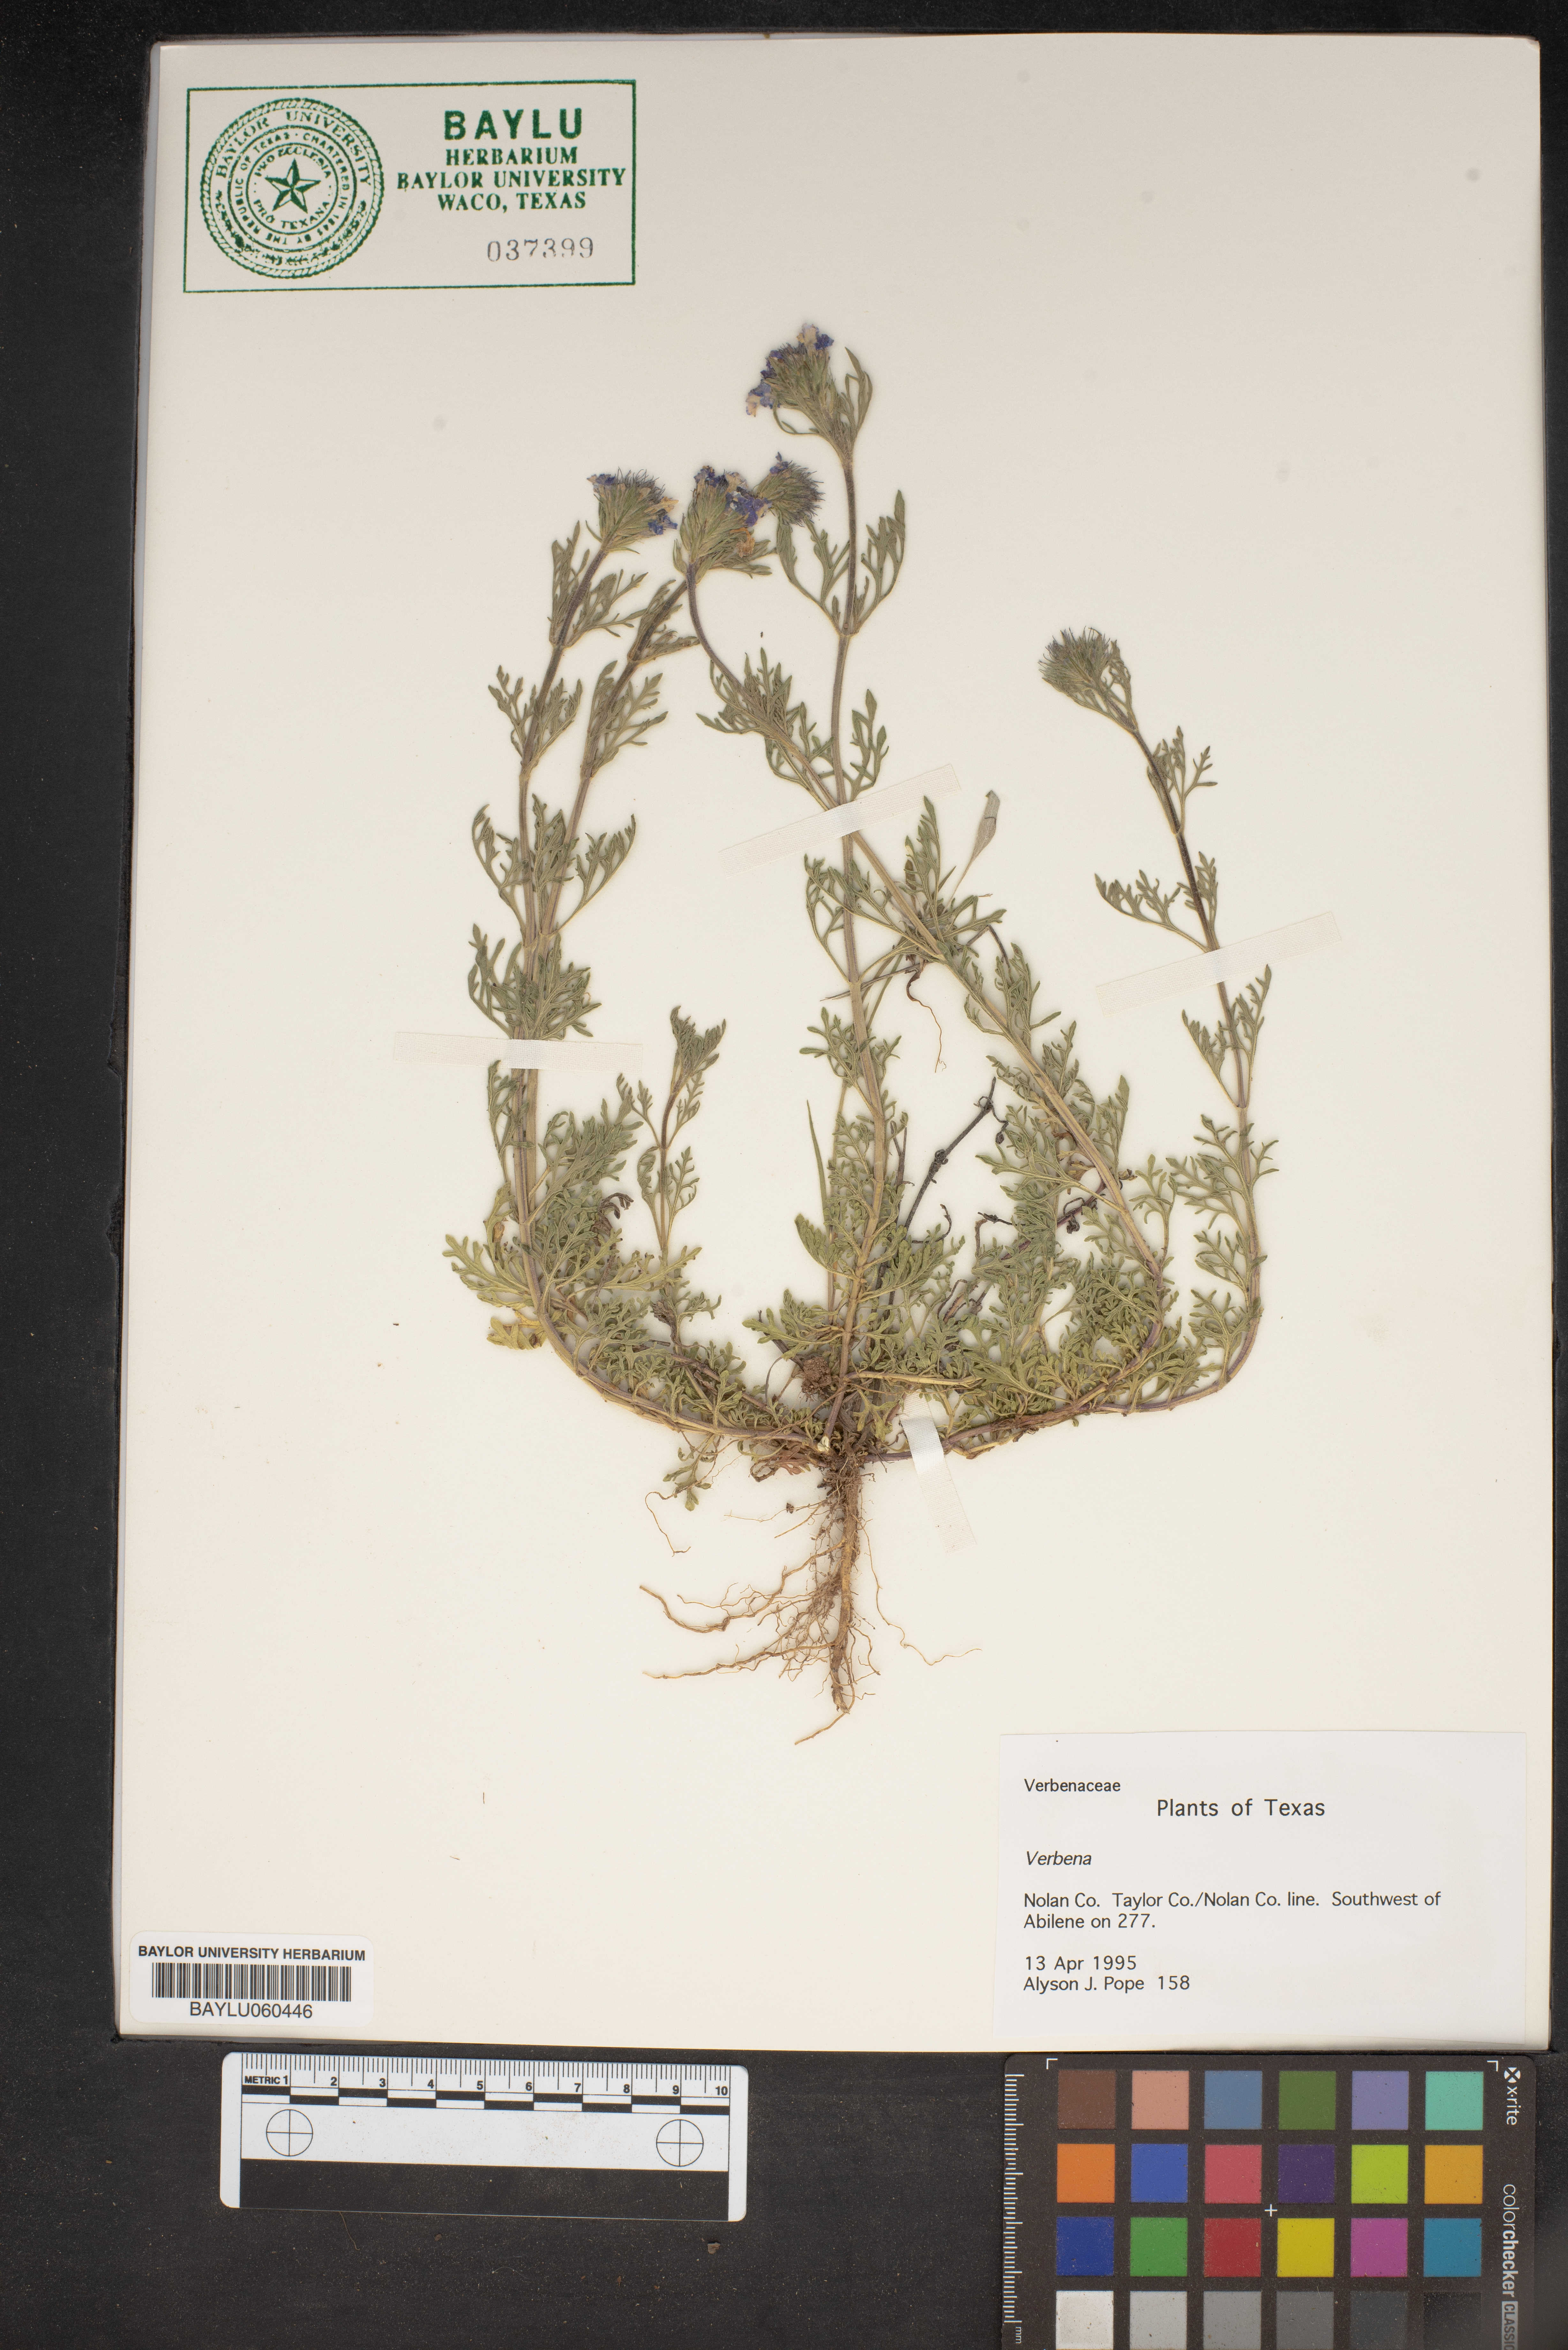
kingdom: Plantae
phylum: Tracheophyta
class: Magnoliopsida
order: Lamiales
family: Verbenaceae
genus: Verbena
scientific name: Verbena
